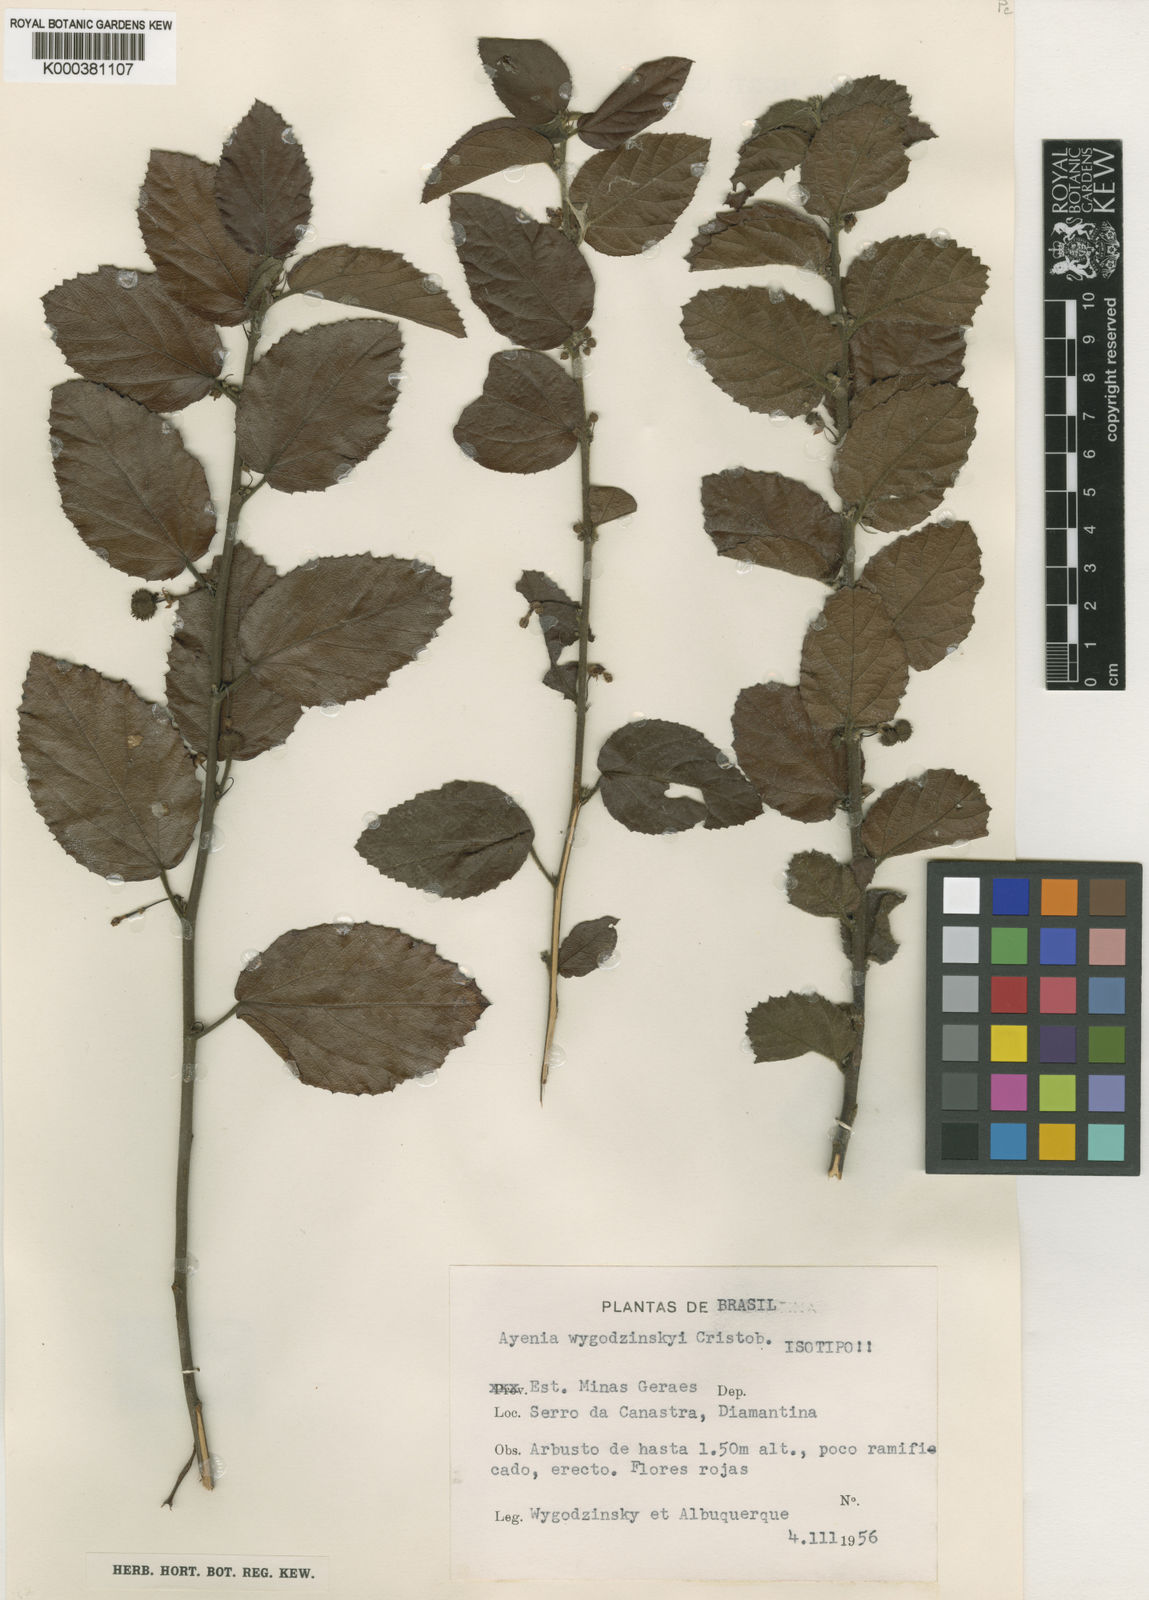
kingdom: Plantae
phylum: Tracheophyta
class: Magnoliopsida
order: Malvales
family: Malvaceae
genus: Ayenia
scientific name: Ayenia
